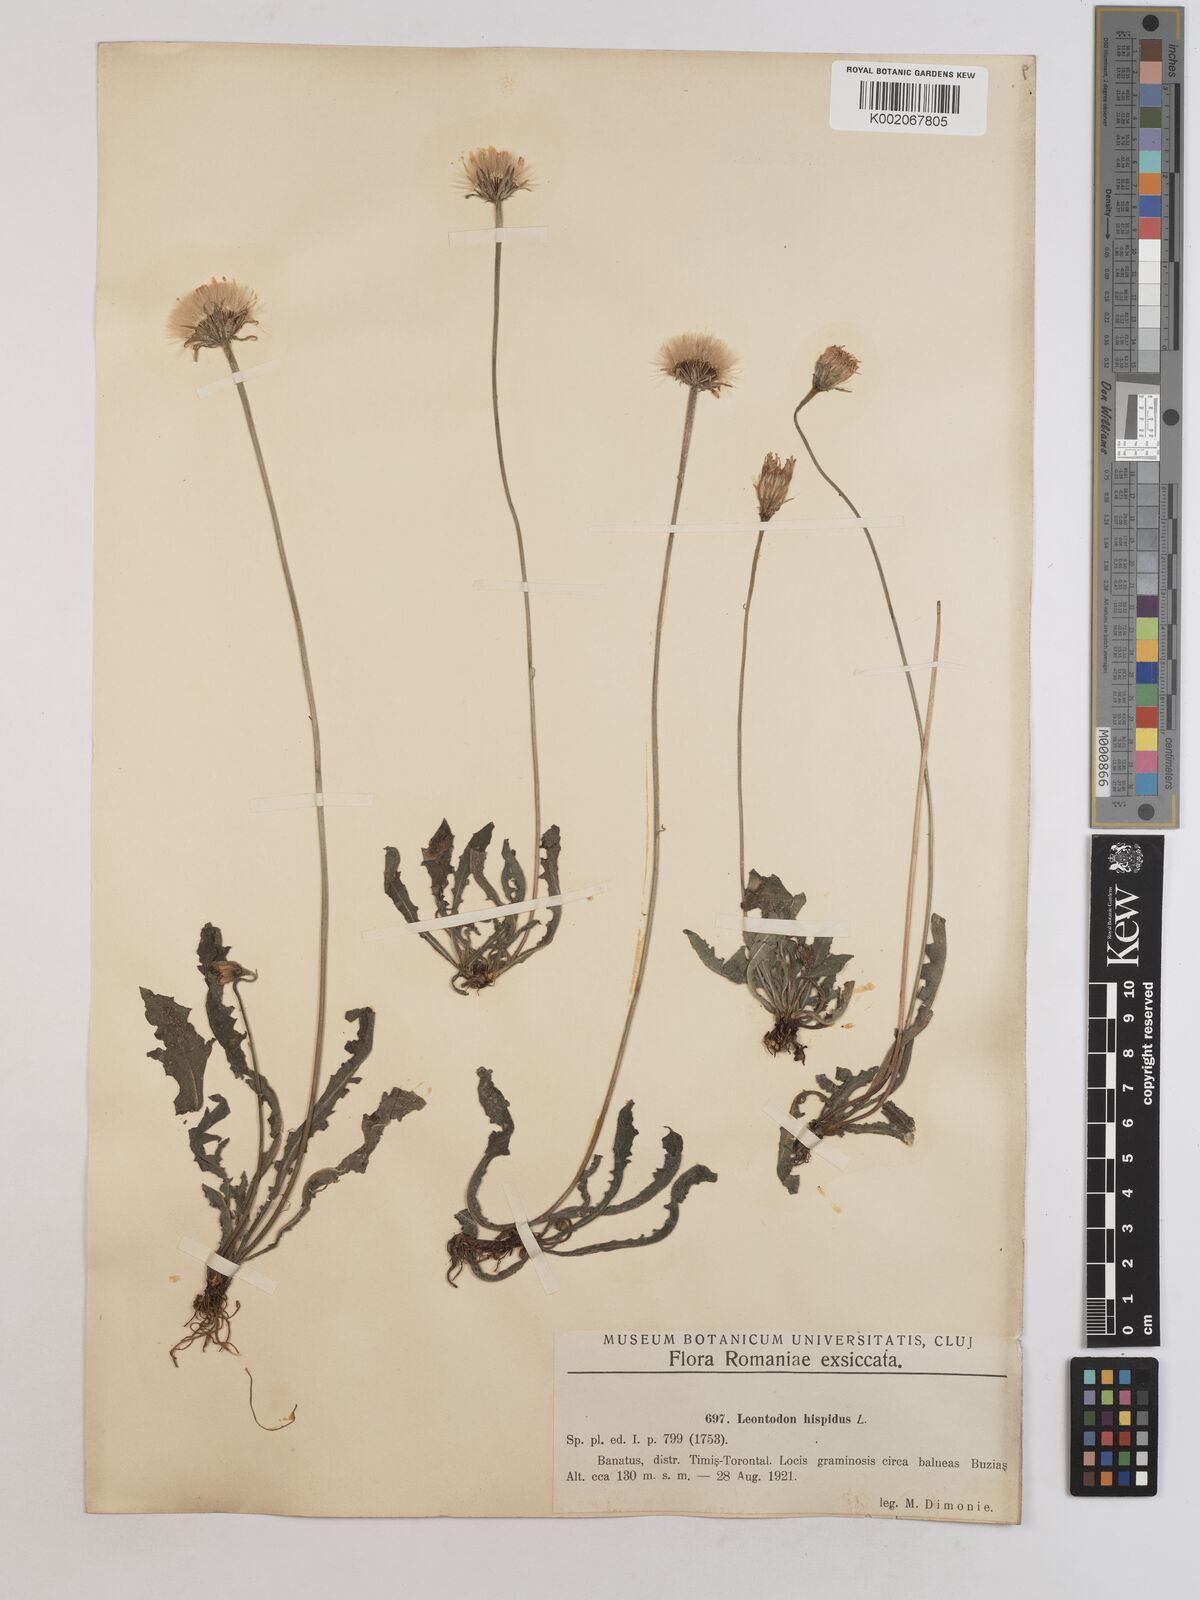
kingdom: Plantae
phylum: Tracheophyta
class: Magnoliopsida
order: Asterales
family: Asteraceae
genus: Leontodon
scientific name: Leontodon hispidus
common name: Rough hawkbit
